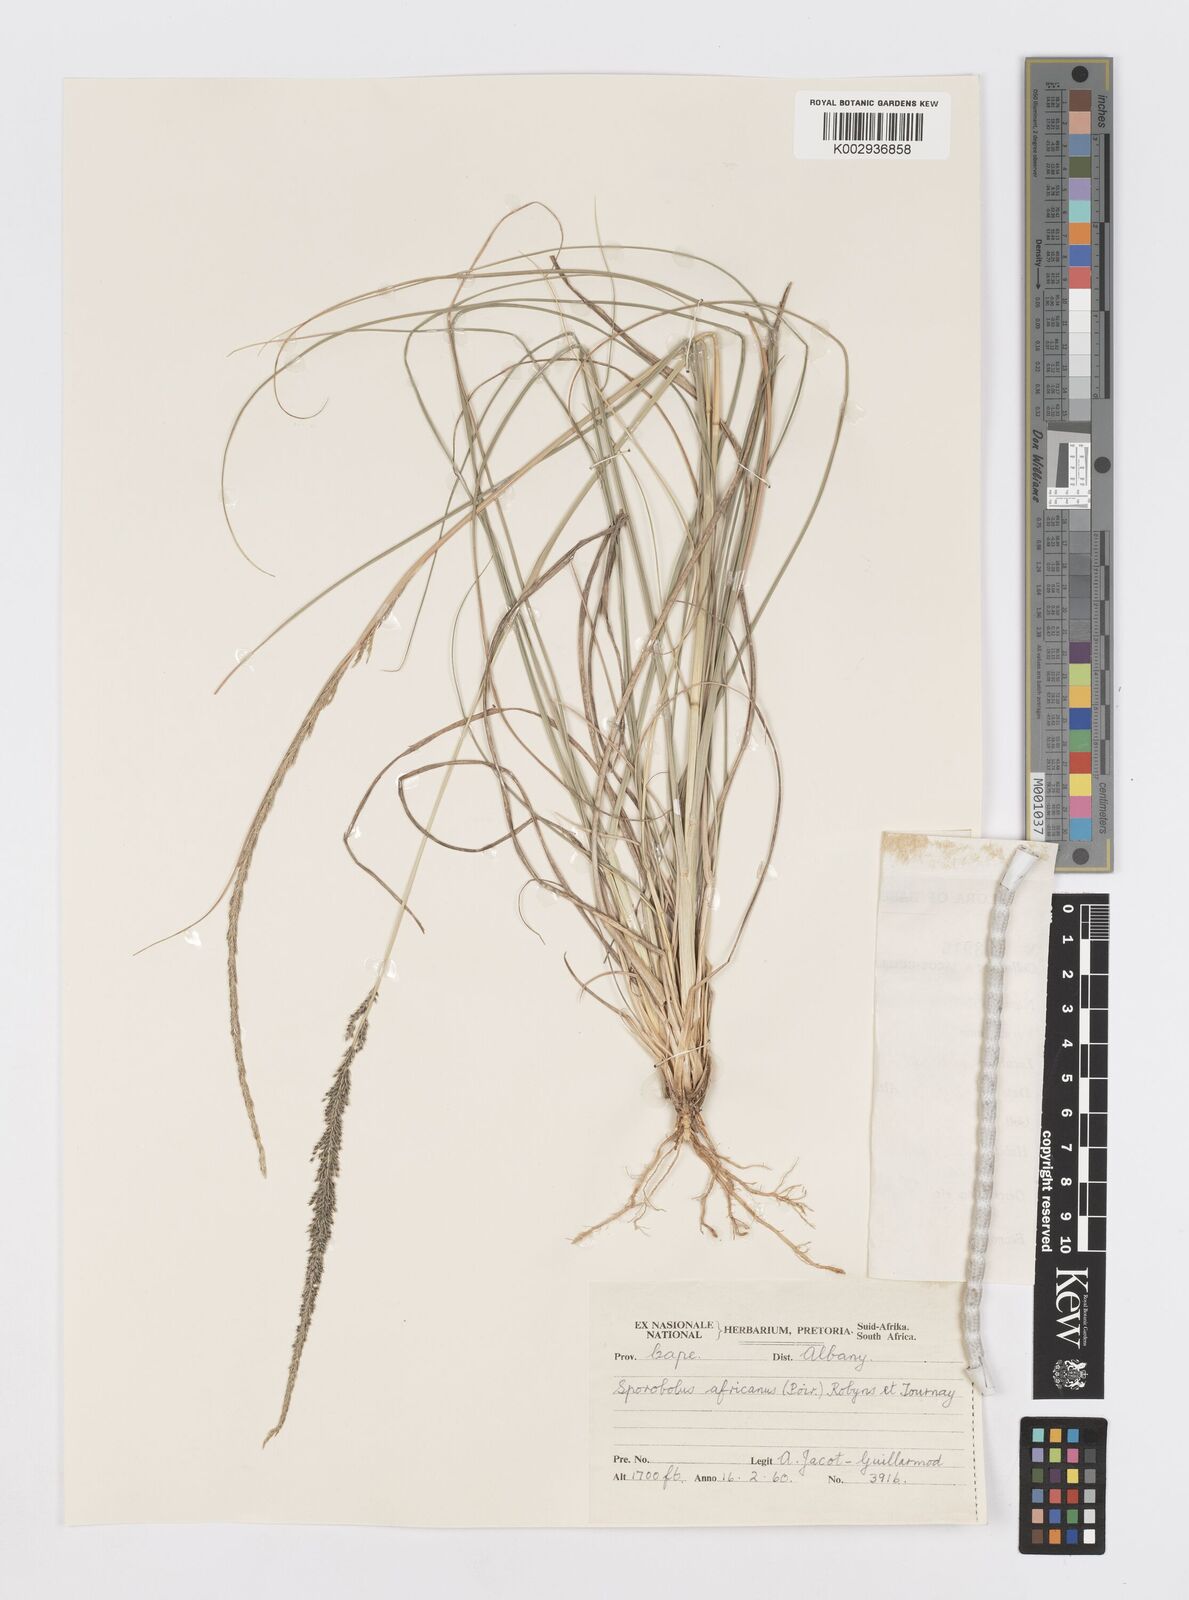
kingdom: Plantae
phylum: Tracheophyta
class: Liliopsida
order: Poales
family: Poaceae
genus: Sporobolus
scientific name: Sporobolus africanus
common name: African dropseed
